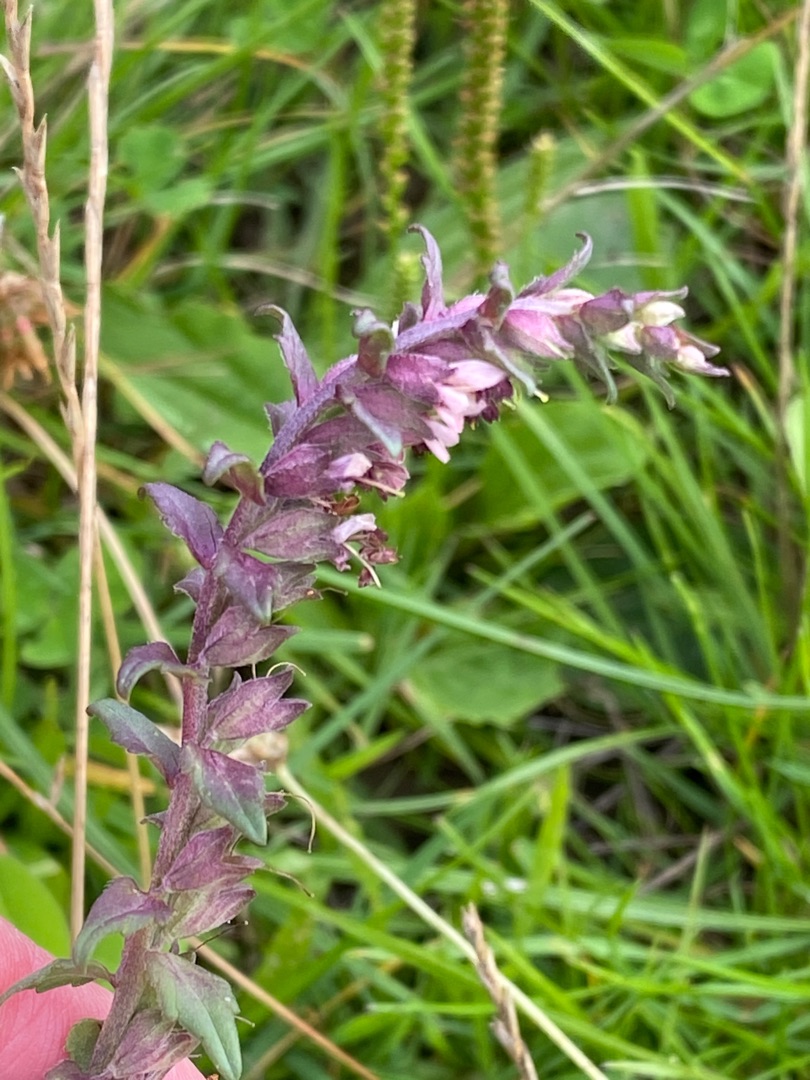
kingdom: Plantae
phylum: Tracheophyta
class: Magnoliopsida
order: Lamiales
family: Orobanchaceae
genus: Odontites
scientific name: Odontites vulgaris
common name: Høst-rødtop
